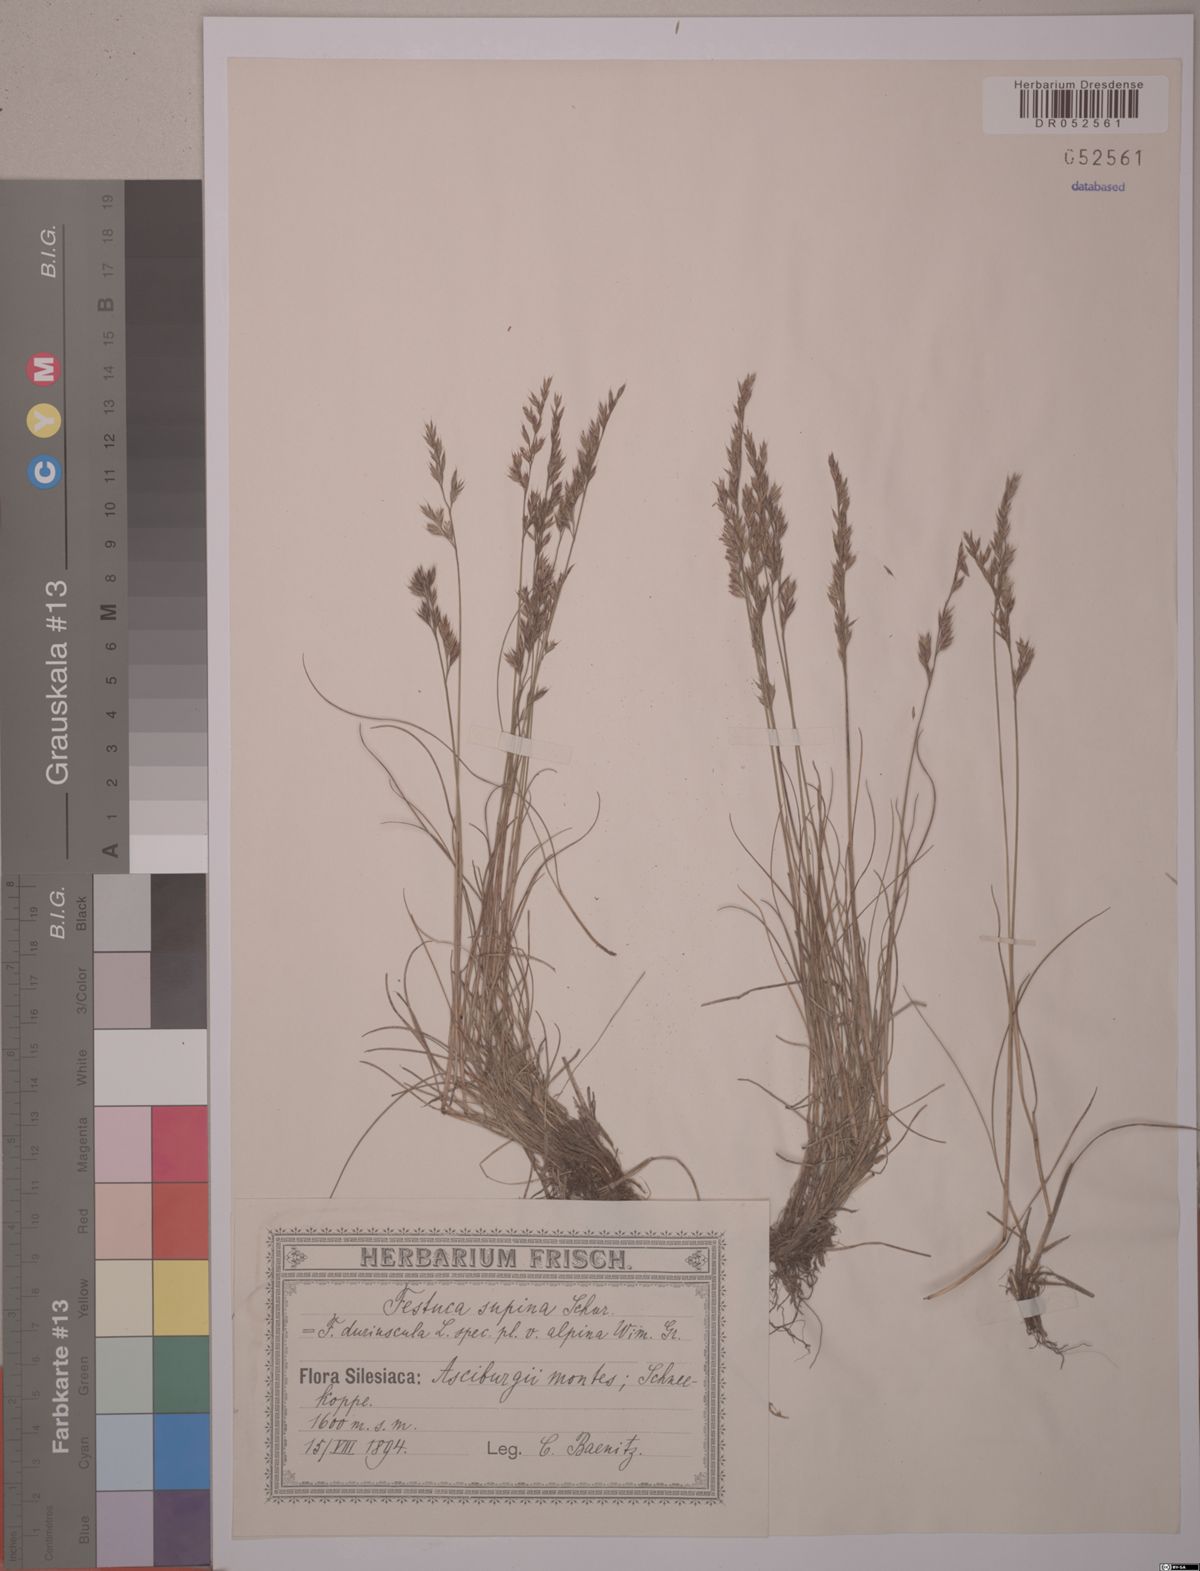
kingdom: Plantae
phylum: Tracheophyta
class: Liliopsida
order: Poales
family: Poaceae
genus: Festuca
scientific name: Festuca airoides
